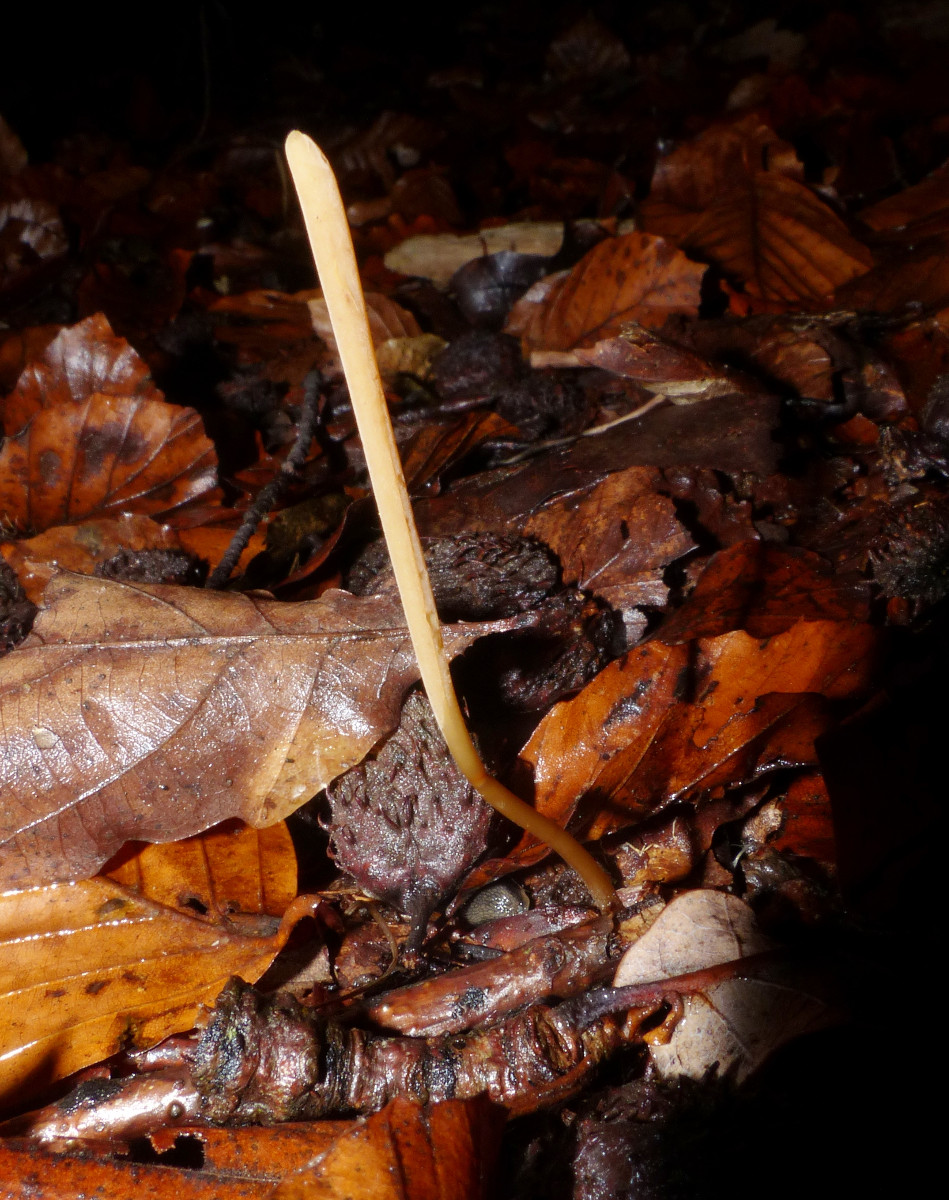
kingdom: Fungi
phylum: Basidiomycota
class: Agaricomycetes
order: Agaricales
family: Typhulaceae
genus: Typhula
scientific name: Typhula fistulosa
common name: pibet rørkølle
